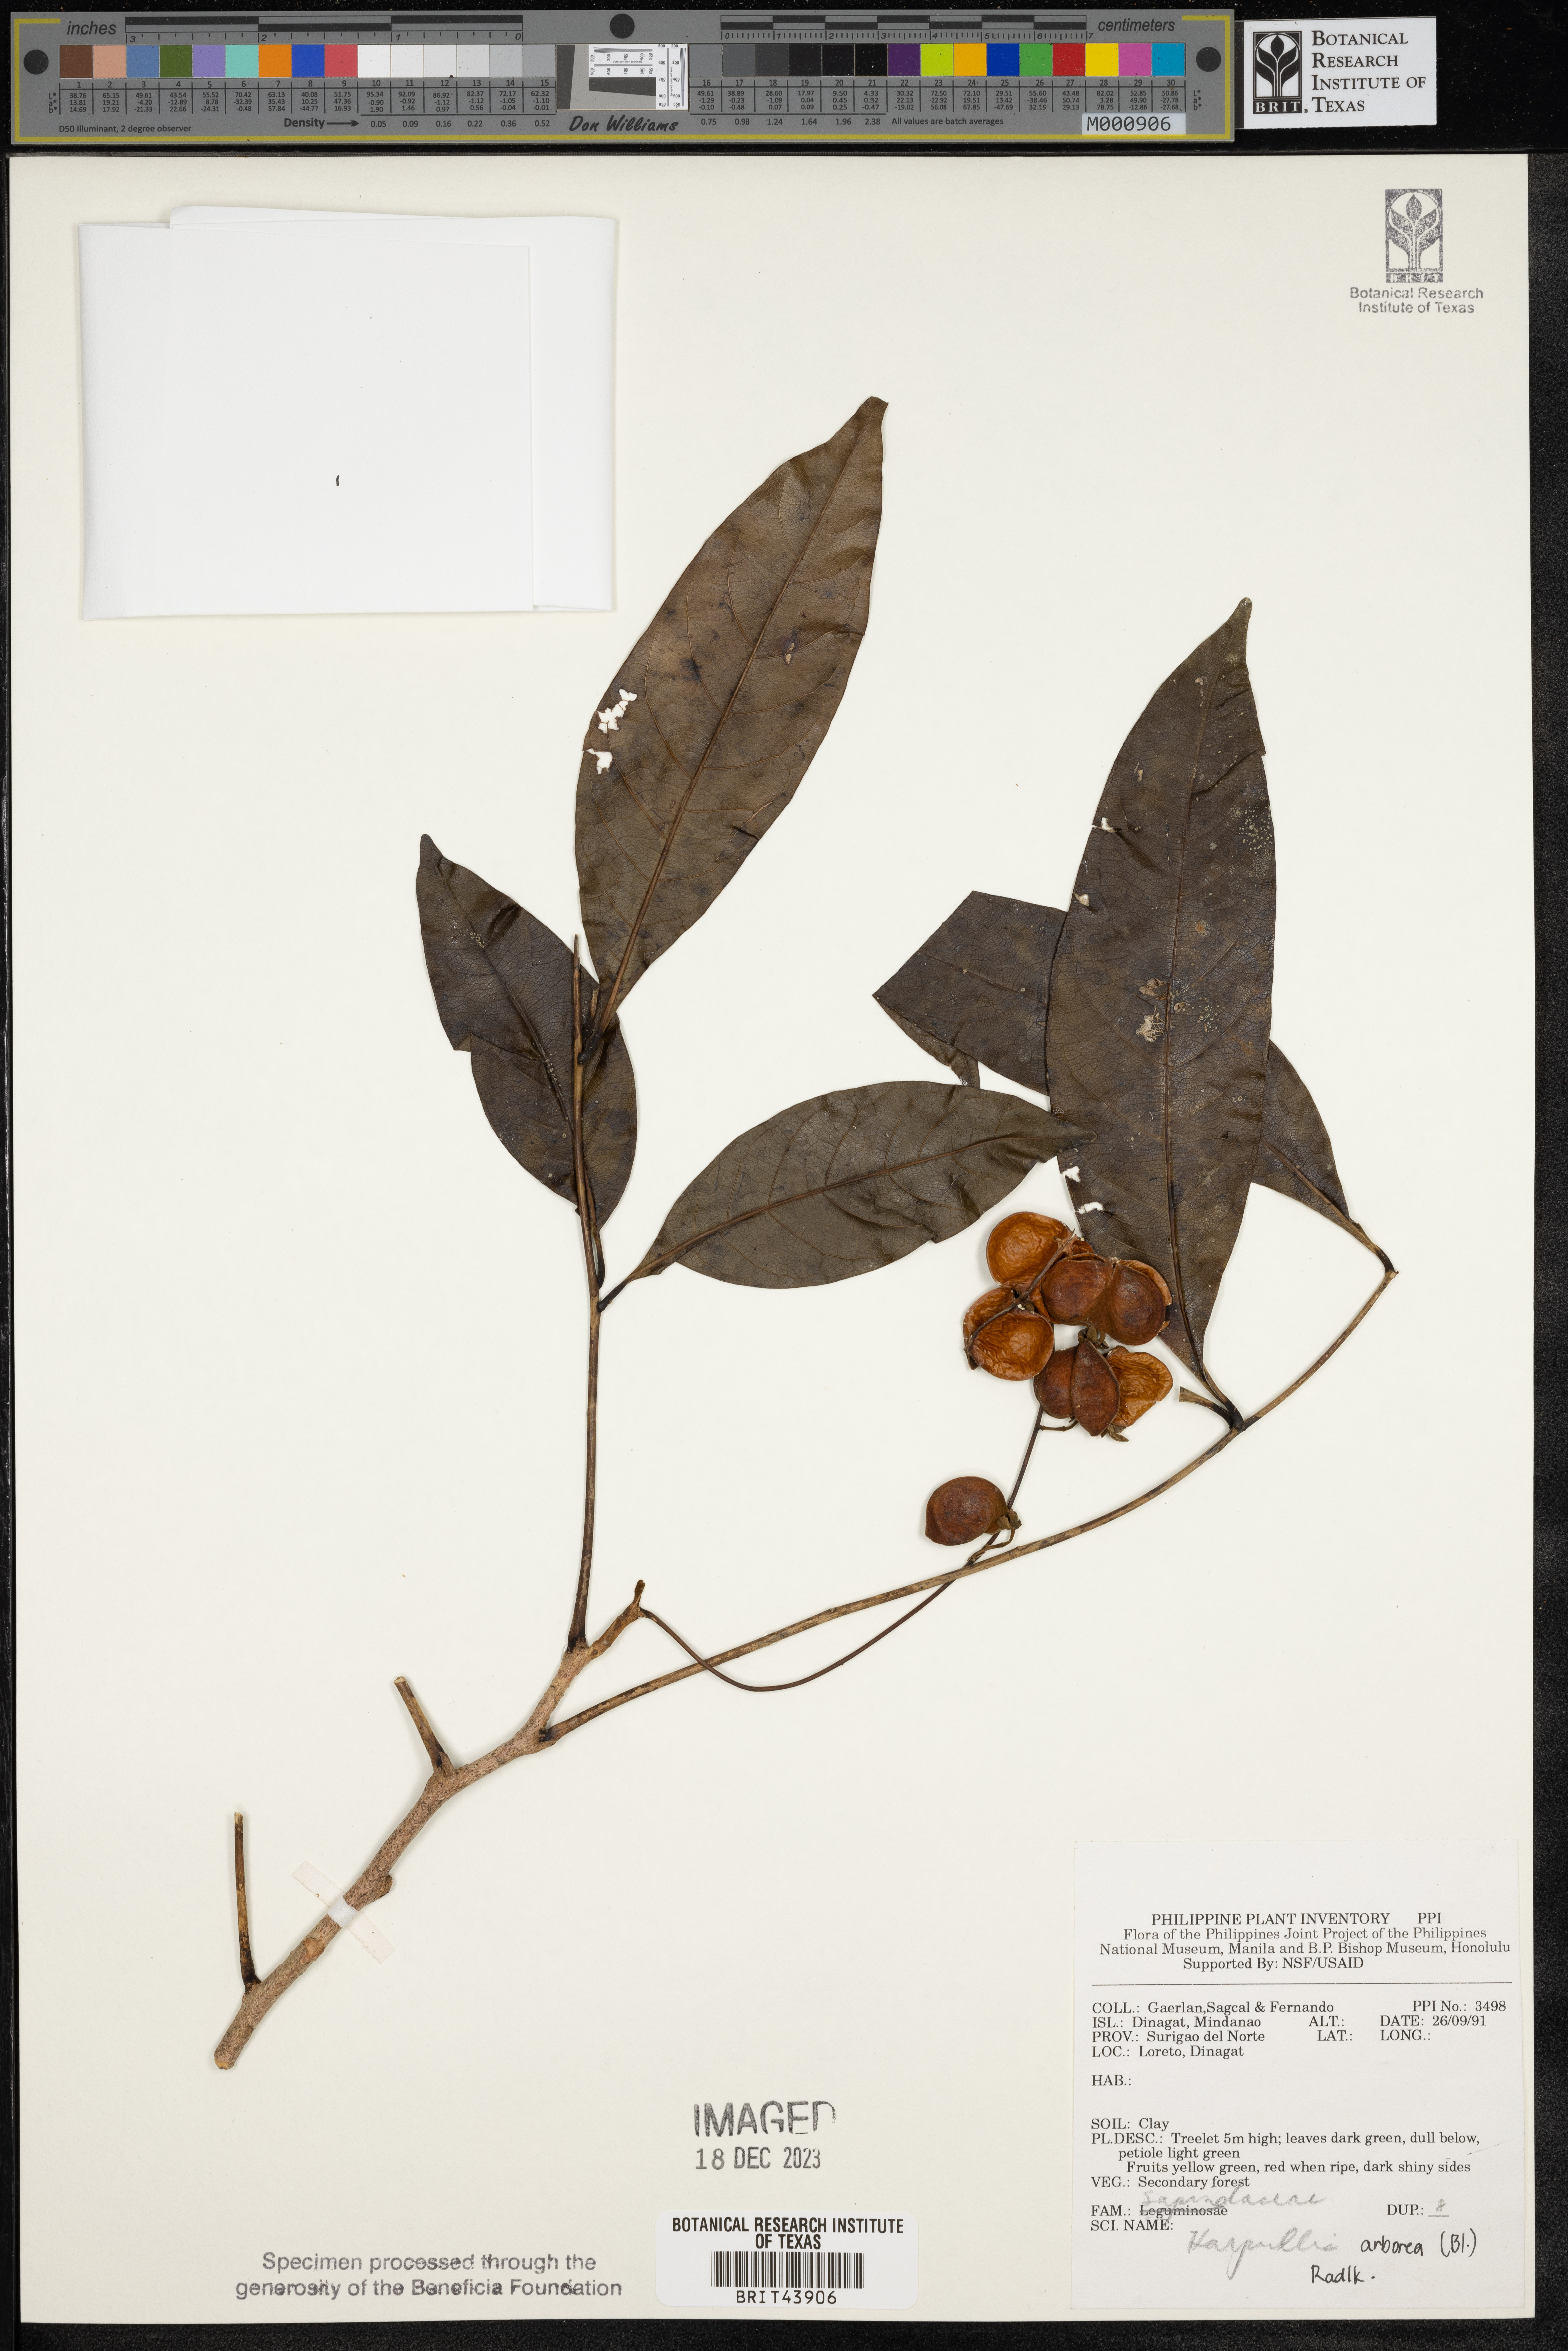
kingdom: Plantae
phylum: Tracheophyta
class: Magnoliopsida
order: Sapindales
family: Sapindaceae
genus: Harpullia
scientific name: Harpullia arborea
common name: Tulip-wood tree
